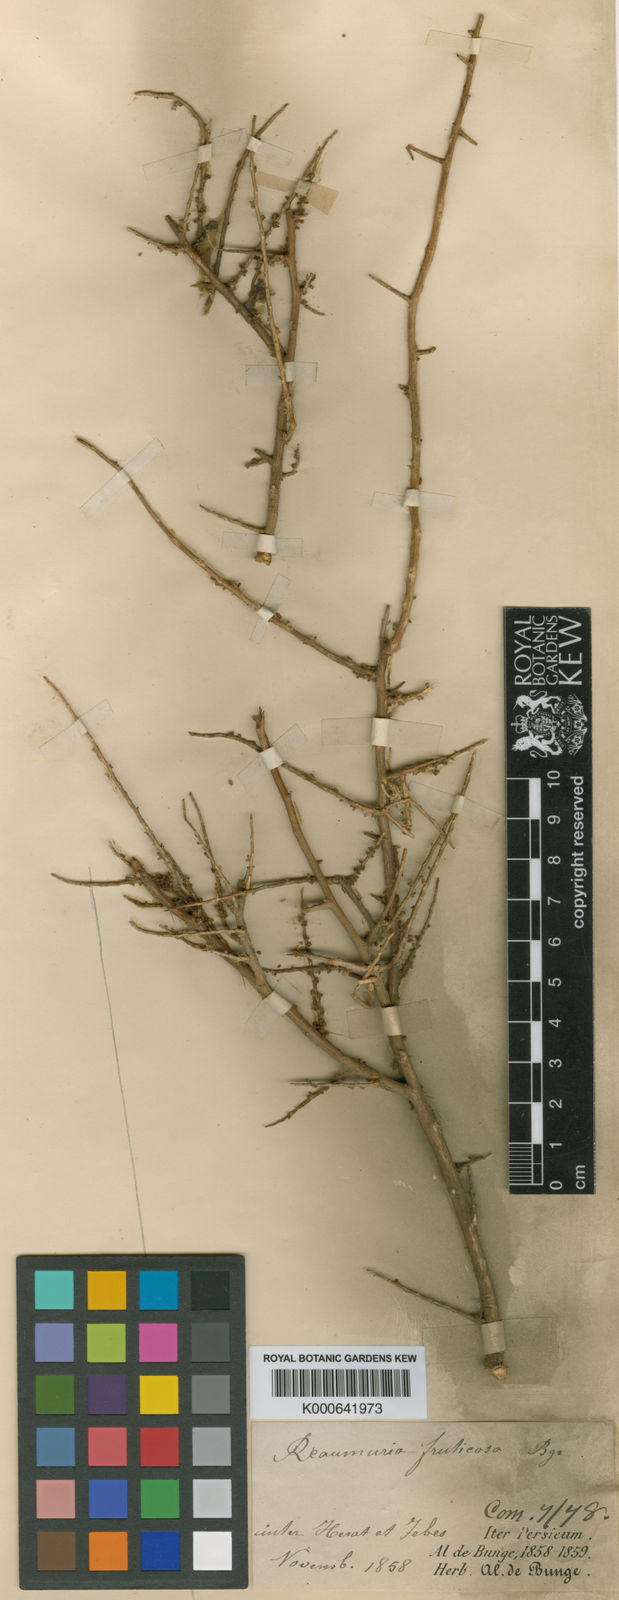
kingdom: Plantae
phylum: Tracheophyta
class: Magnoliopsida
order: Caryophyllales
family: Tamaricaceae
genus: Reaumuria
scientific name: Reaumuria
